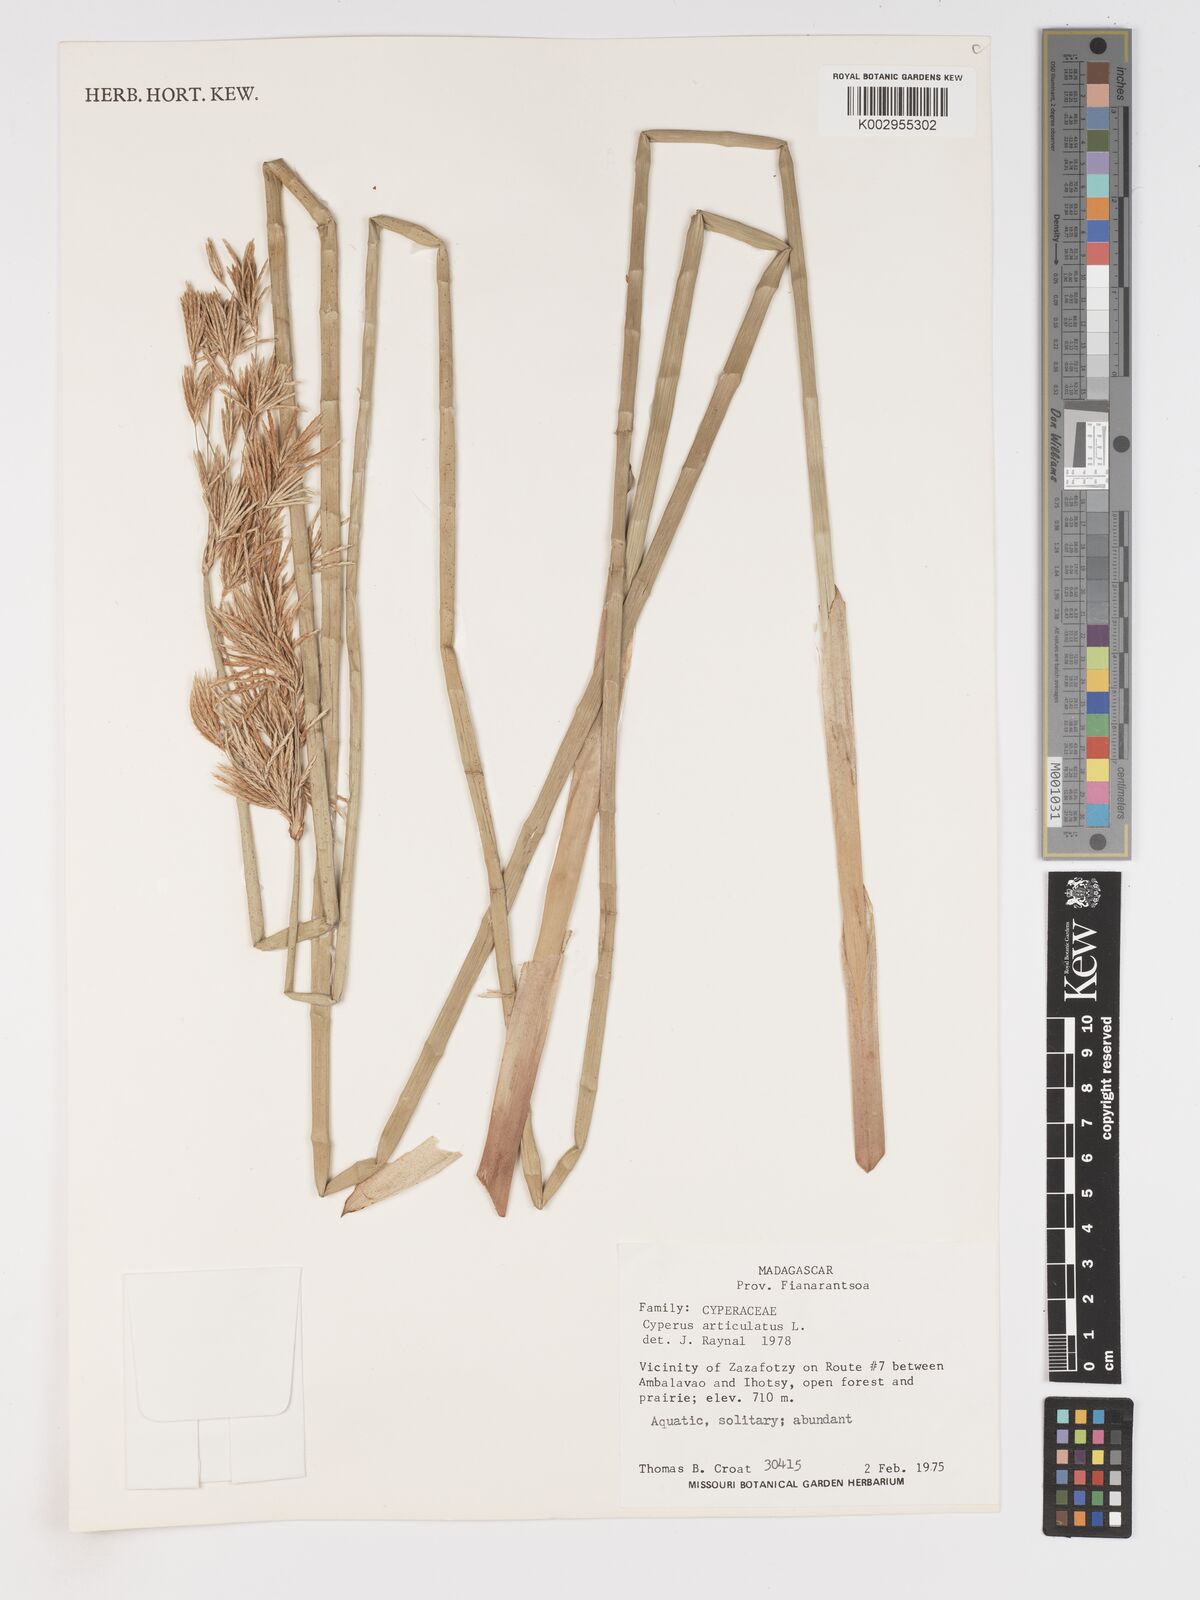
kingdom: Plantae
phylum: Tracheophyta
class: Liliopsida
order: Poales
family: Cyperaceae
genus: Cyperus
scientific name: Cyperus articulatus
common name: Jointed flatsedge
